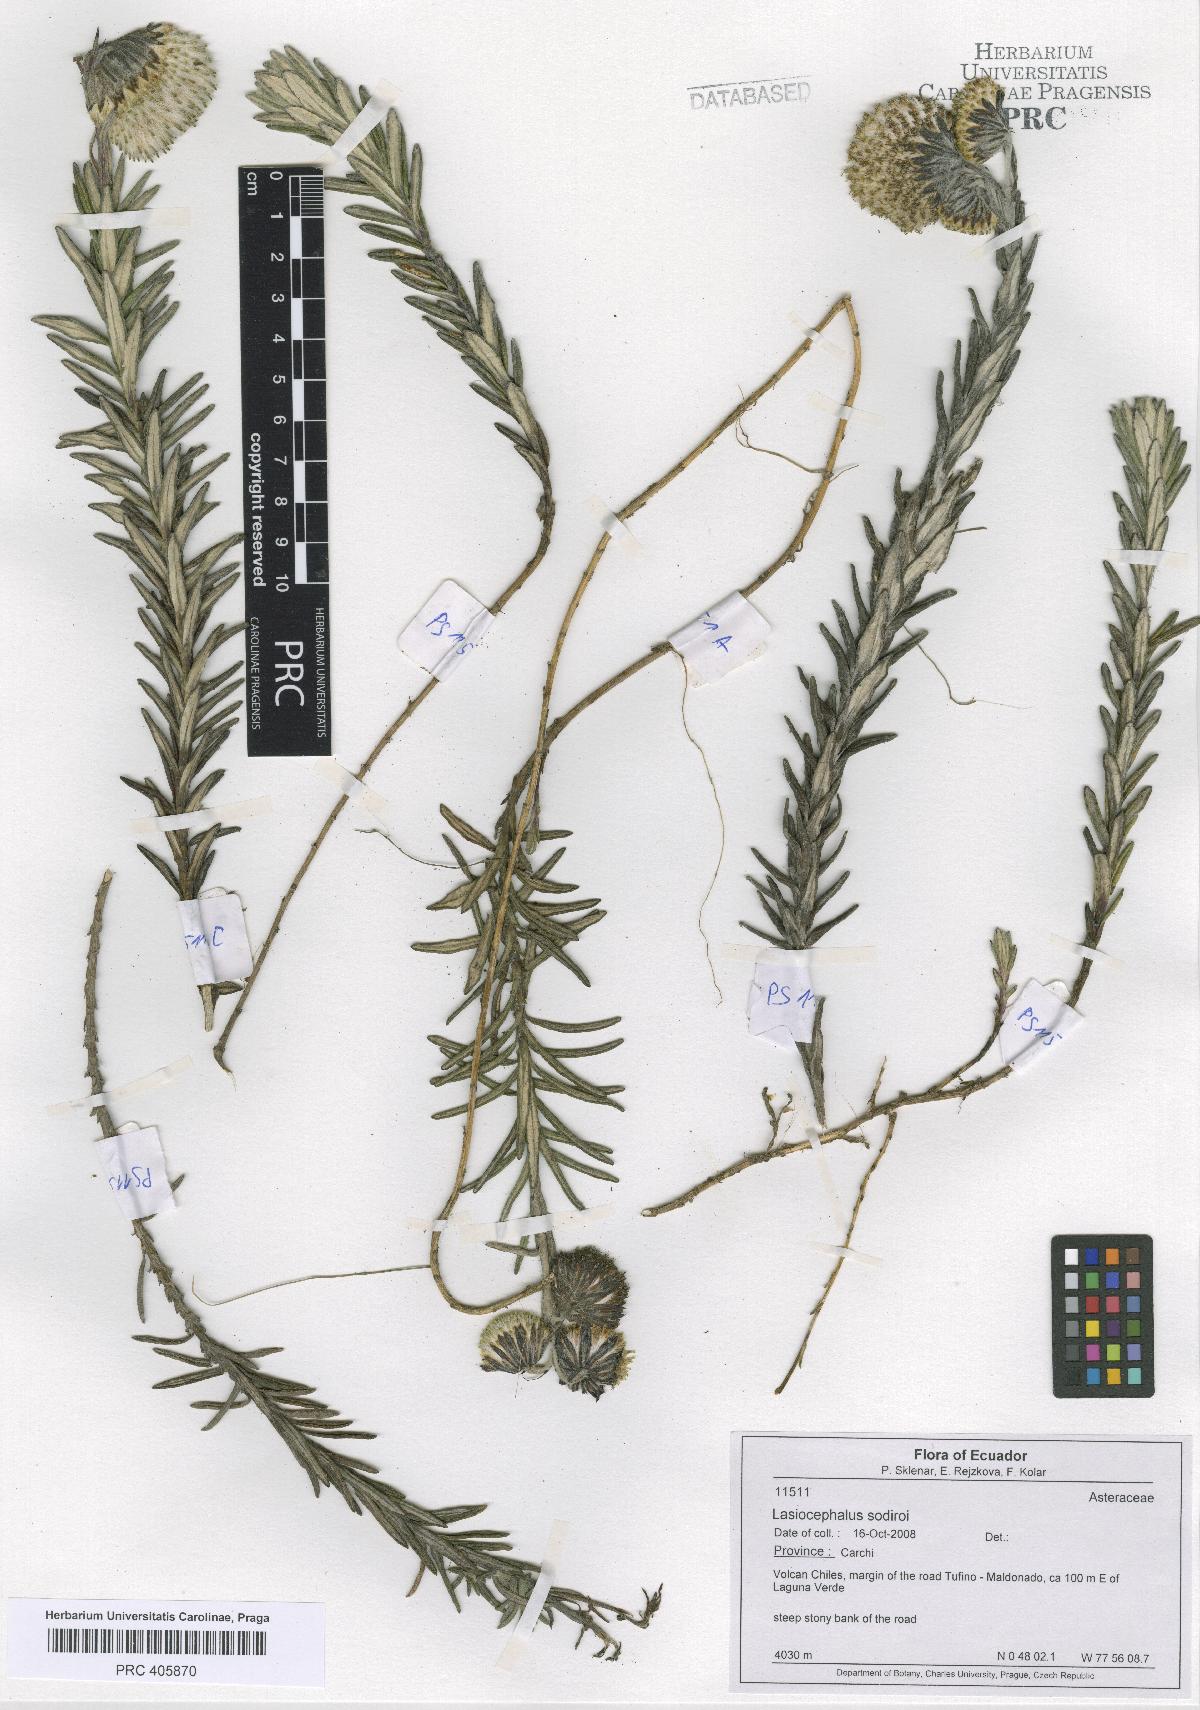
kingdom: Plantae
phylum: Tracheophyta
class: Magnoliopsida
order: Asterales
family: Asteraceae
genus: Lasiocephalus
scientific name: Lasiocephalus peruvianus
